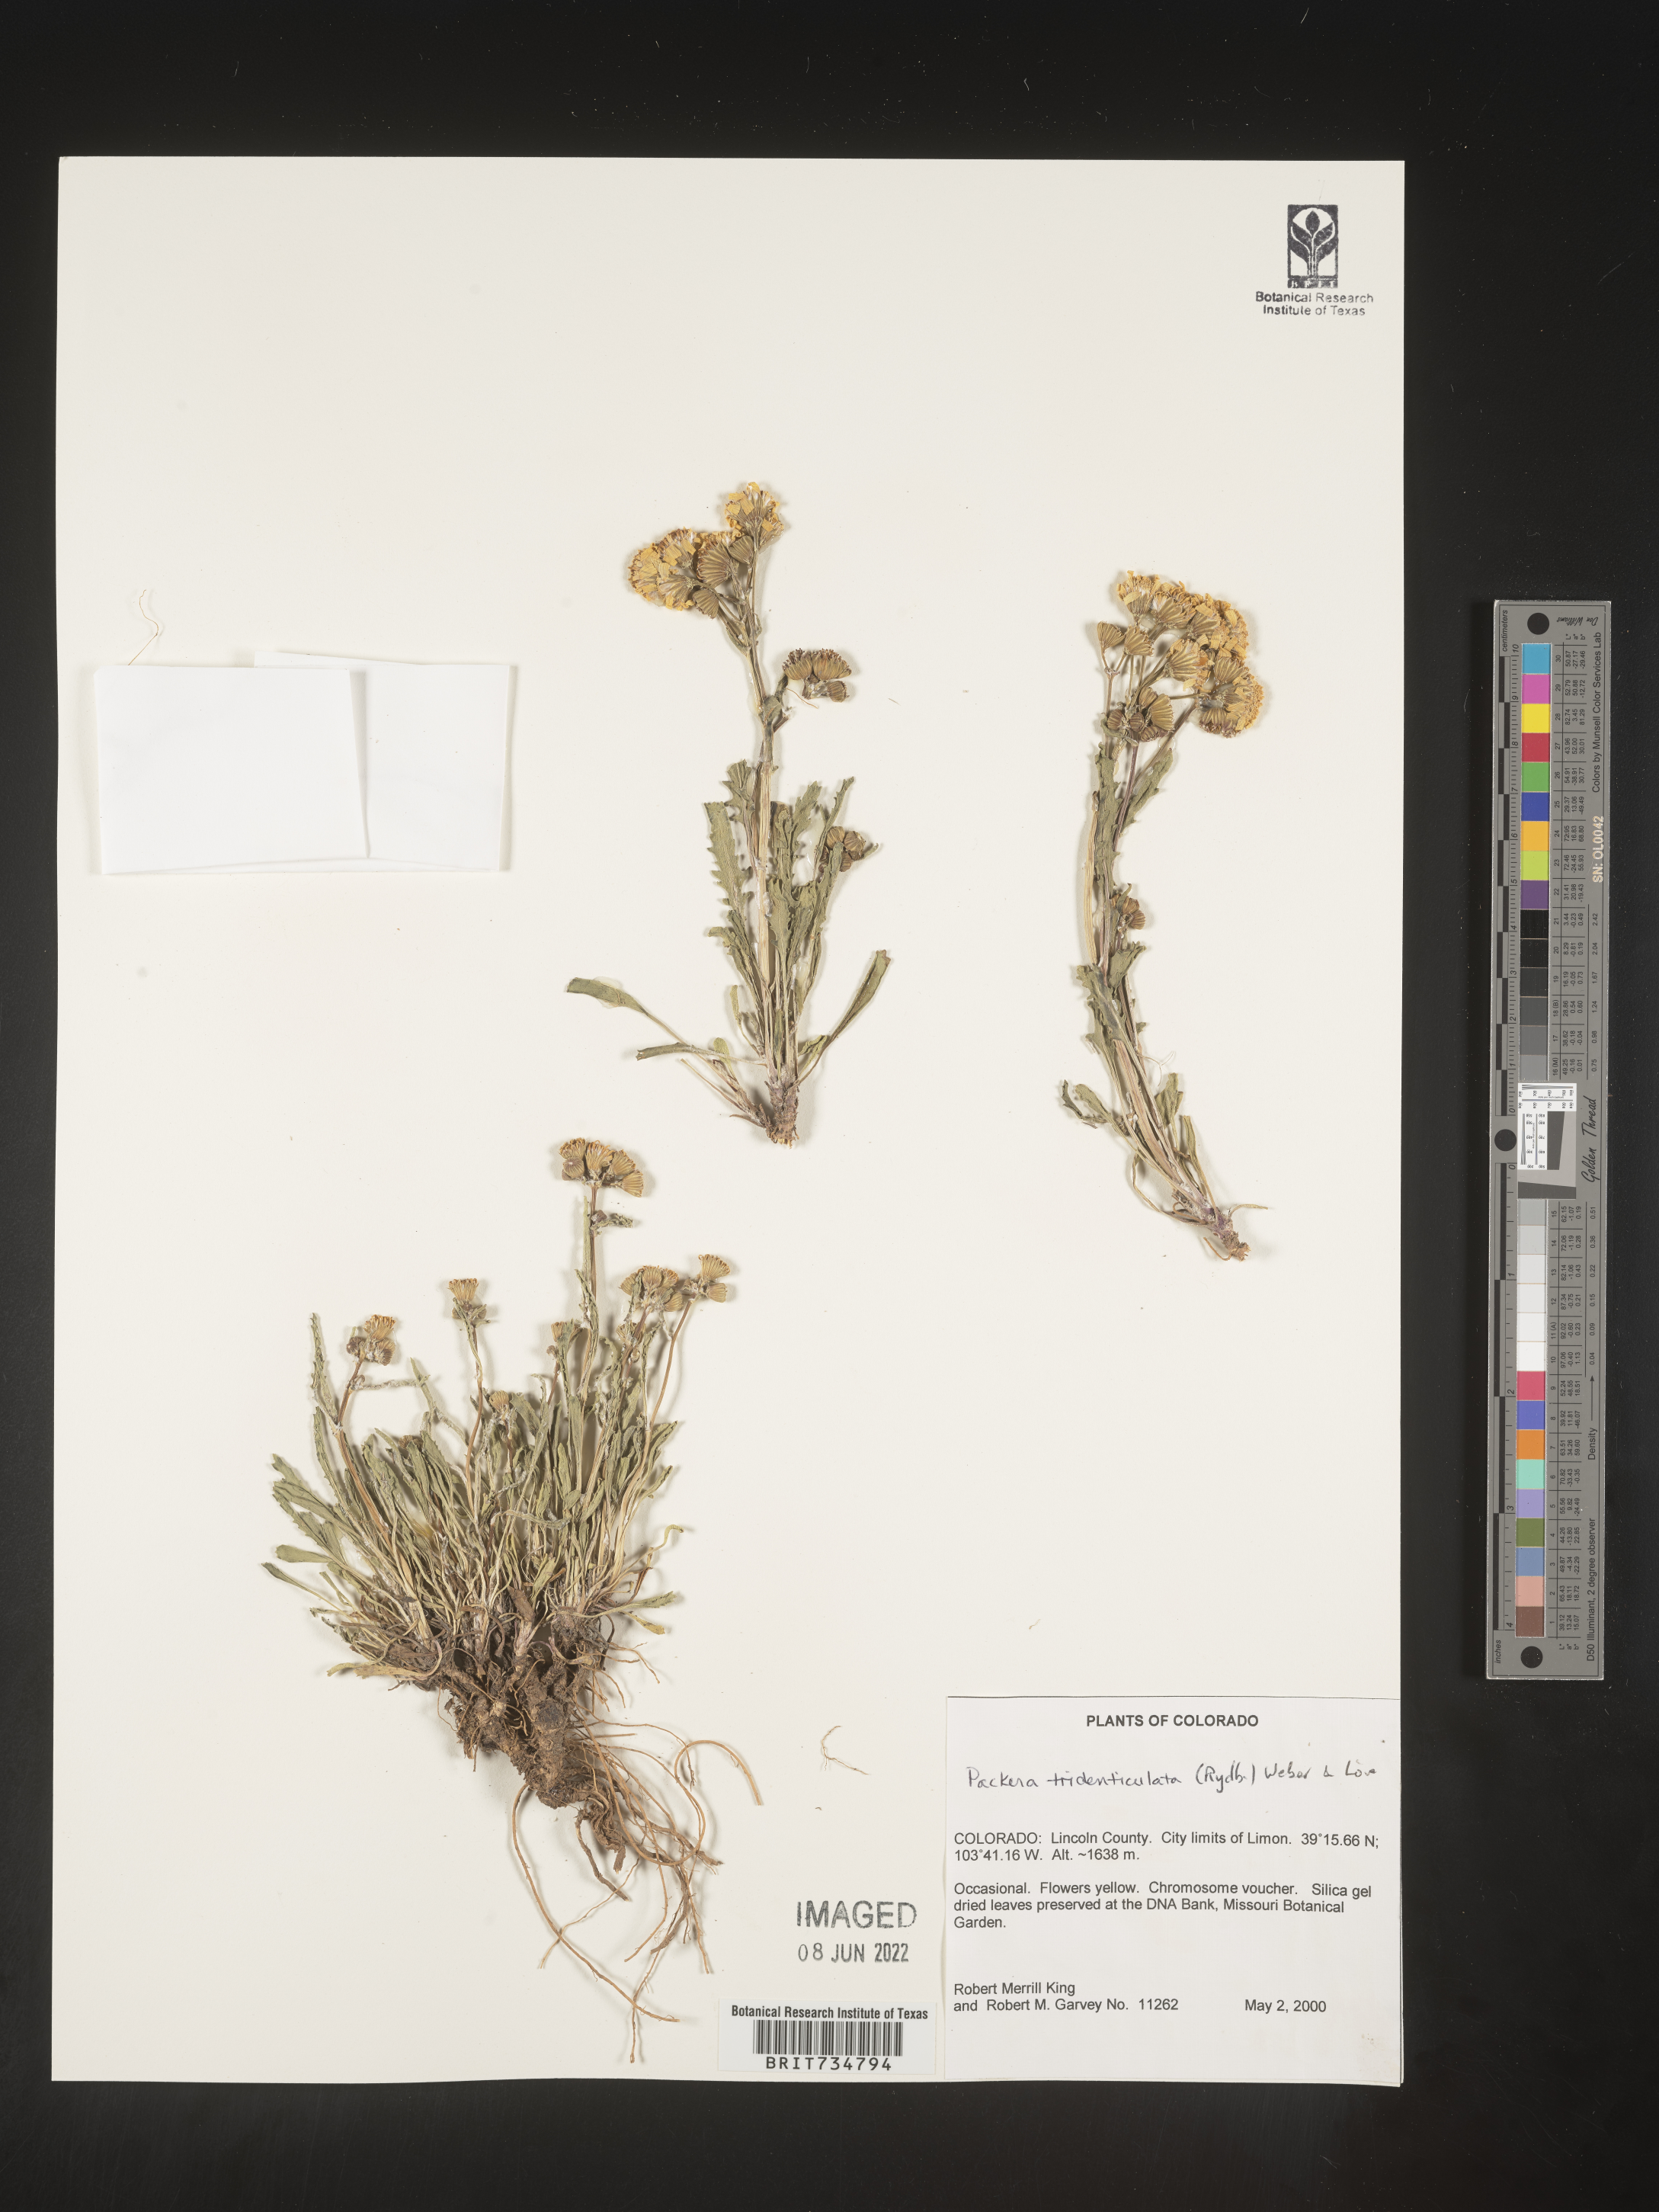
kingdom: Plantae
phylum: Tracheophyta
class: Magnoliopsida
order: Asterales
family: Asteraceae
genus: Packera
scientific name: Packera thurberi
